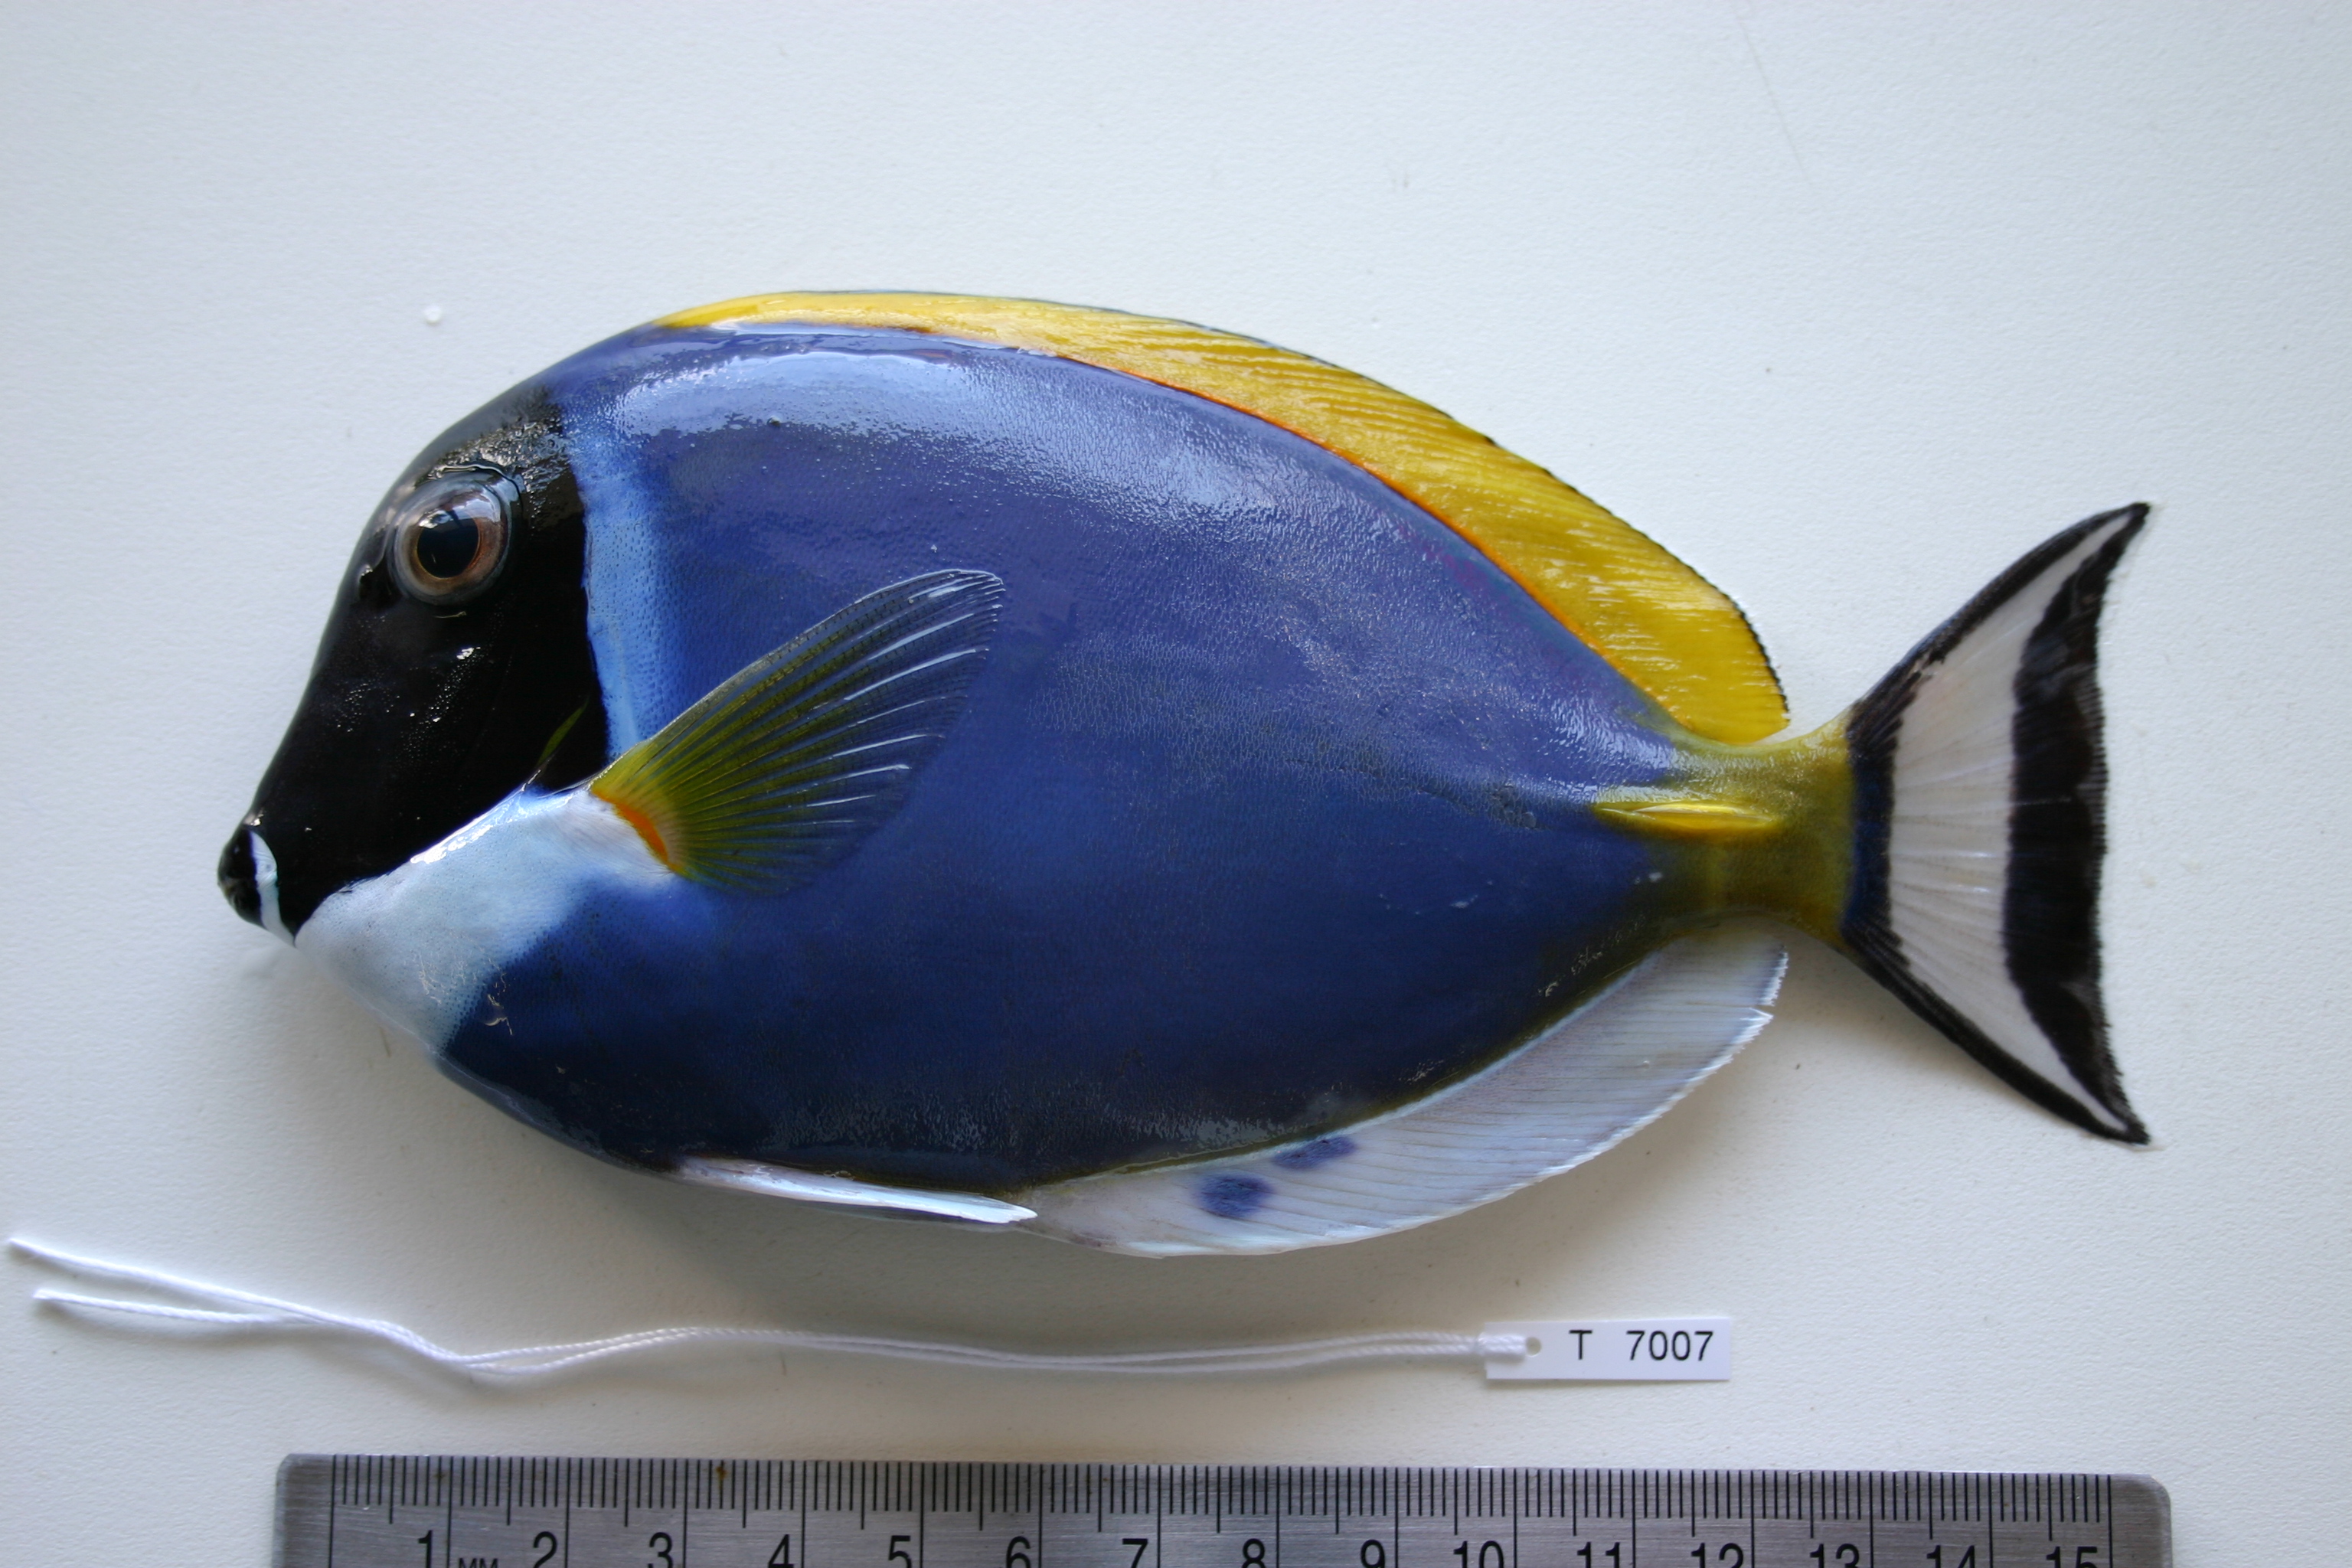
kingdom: Animalia
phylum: Chordata
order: Perciformes
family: Acanthuridae
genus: Acanthurus
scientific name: Acanthurus leucosternon
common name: Blue surgeonfish
